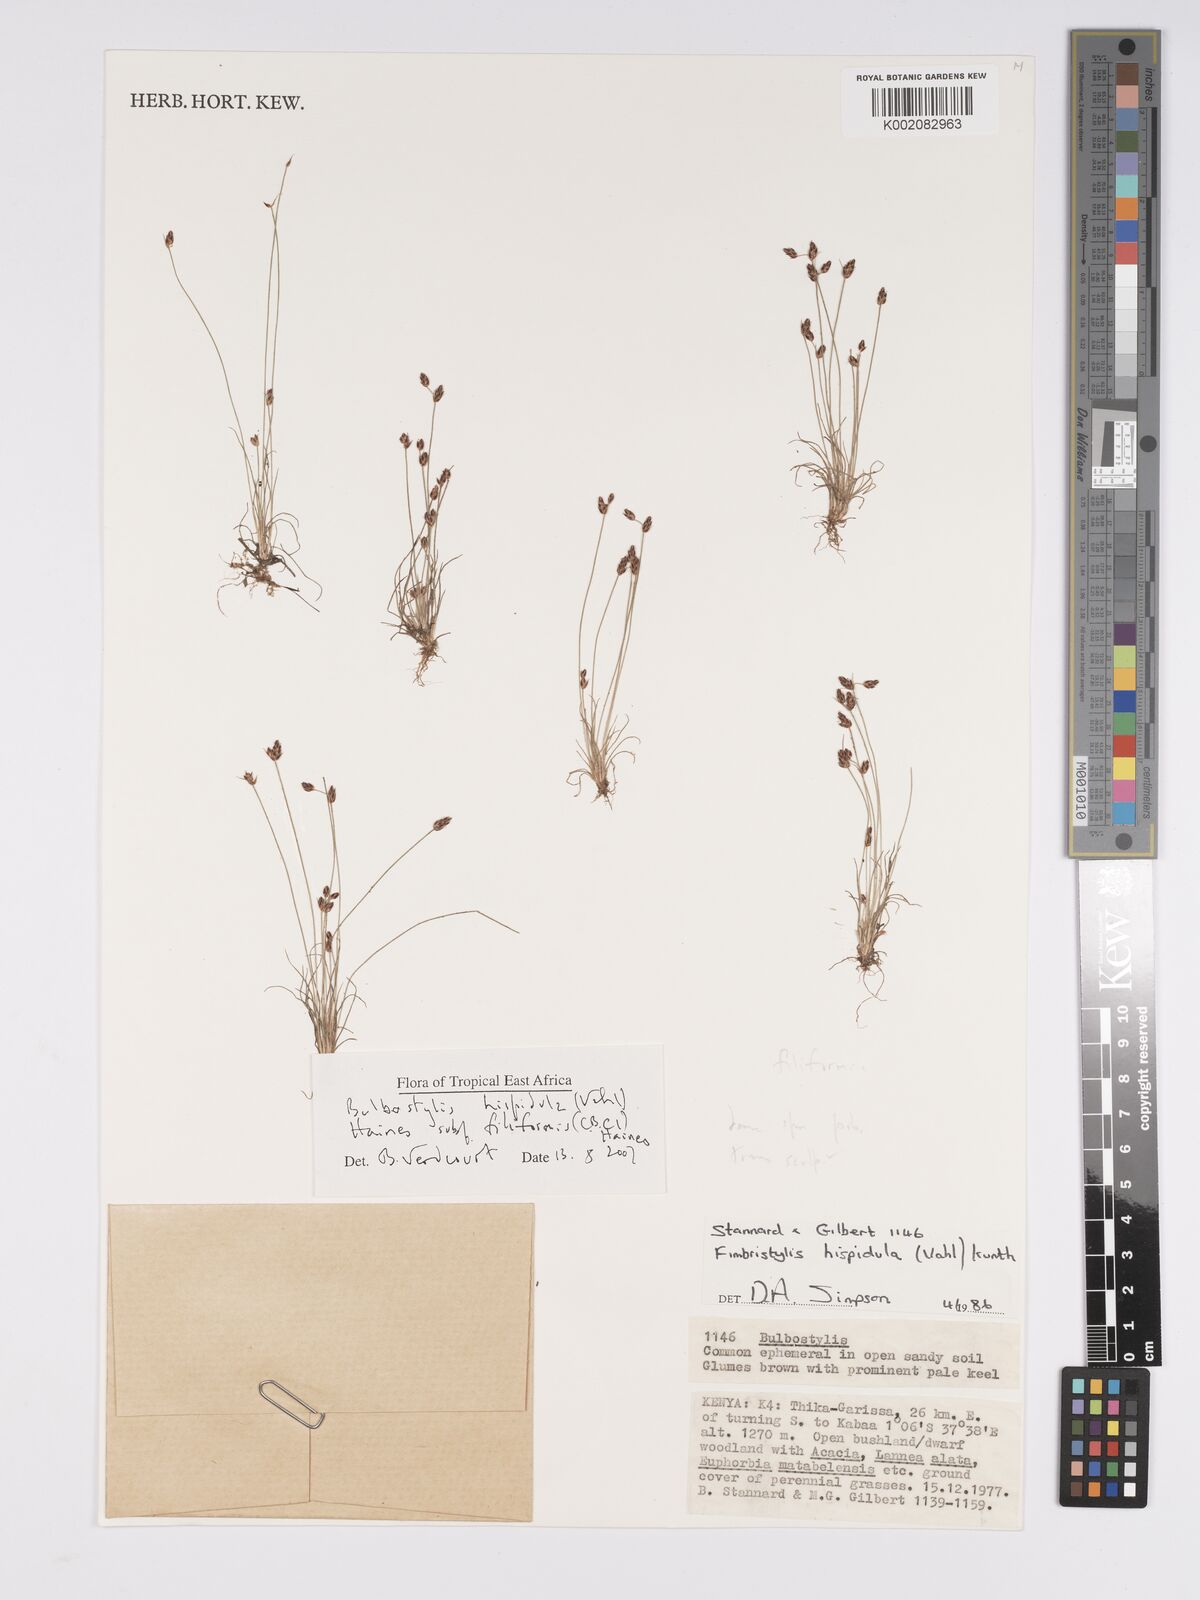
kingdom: Plantae
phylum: Tracheophyta
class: Liliopsida
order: Poales
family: Cyperaceae
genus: Bulbostylis
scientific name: Bulbostylis hispidula
